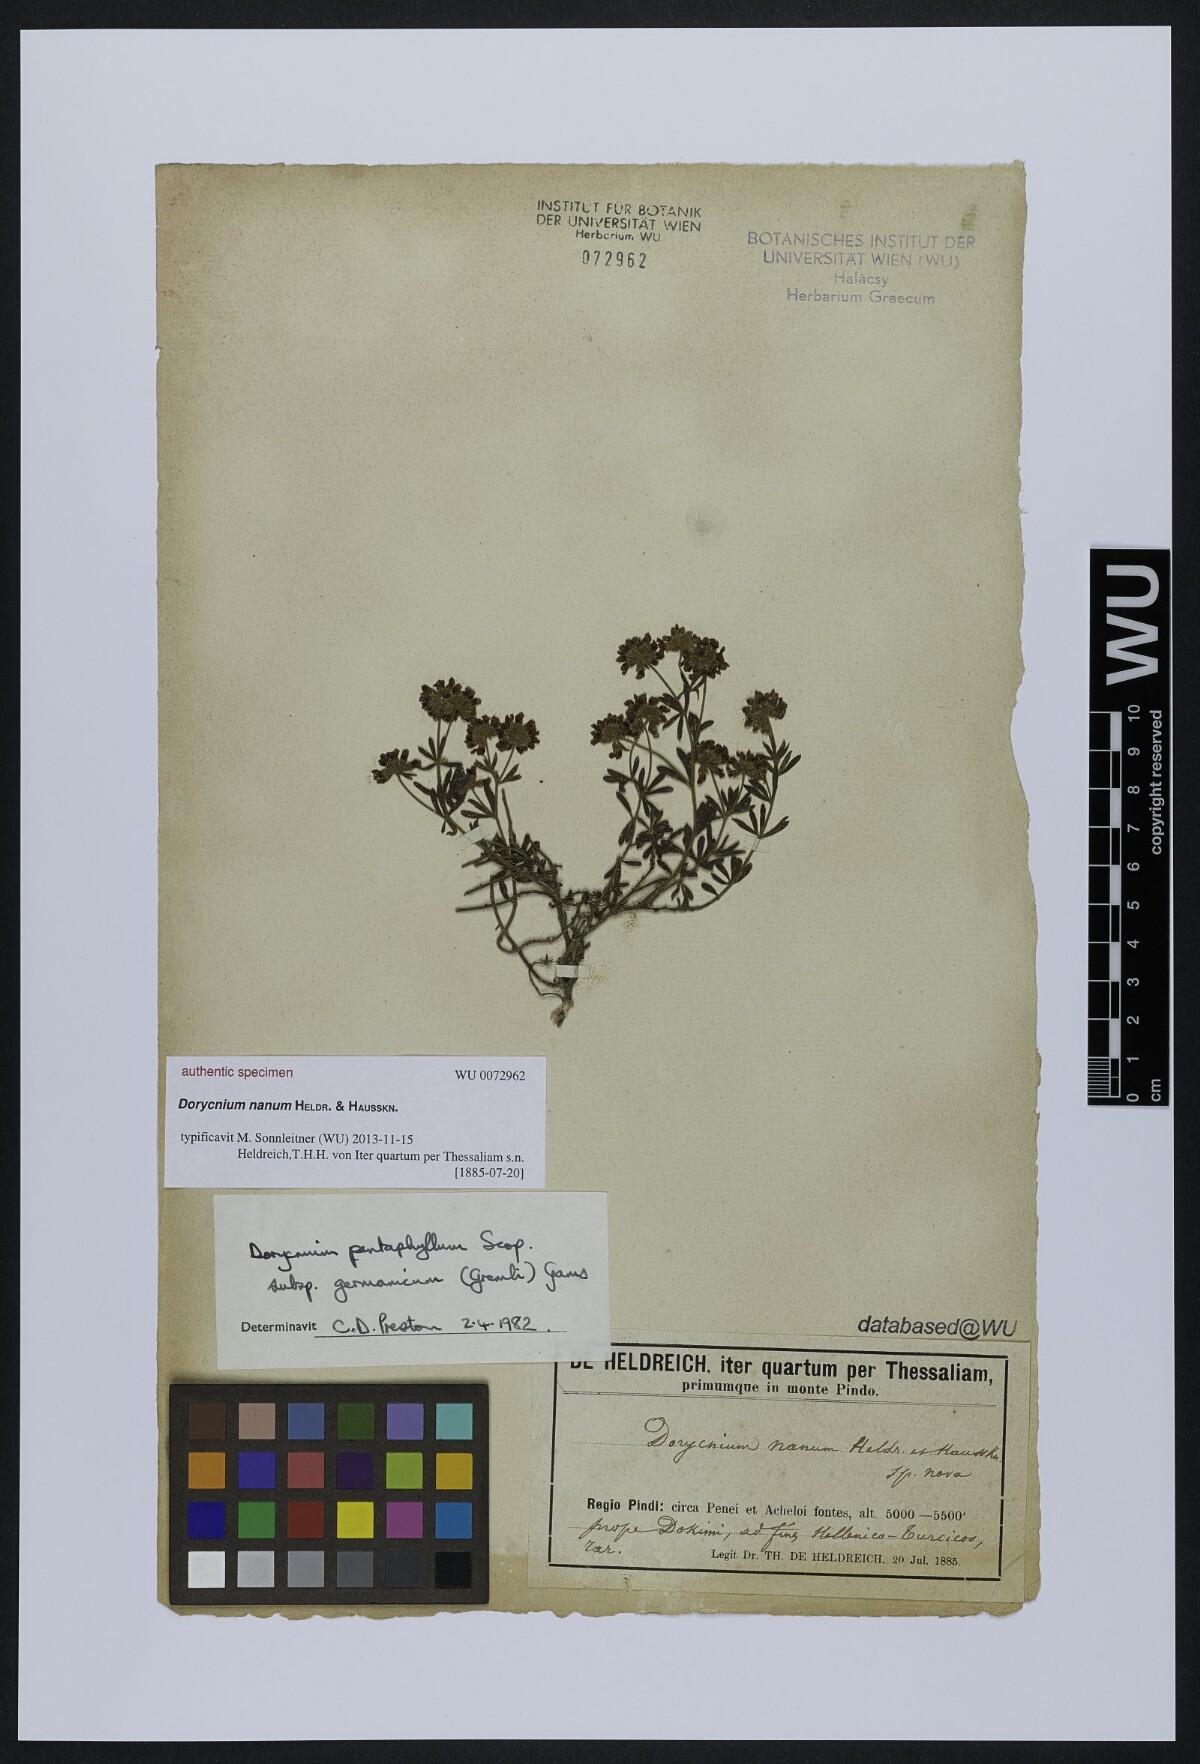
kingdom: Plantae
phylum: Tracheophyta
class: Magnoliopsida
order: Fabales
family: Fabaceae
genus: Lotus
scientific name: Lotus
